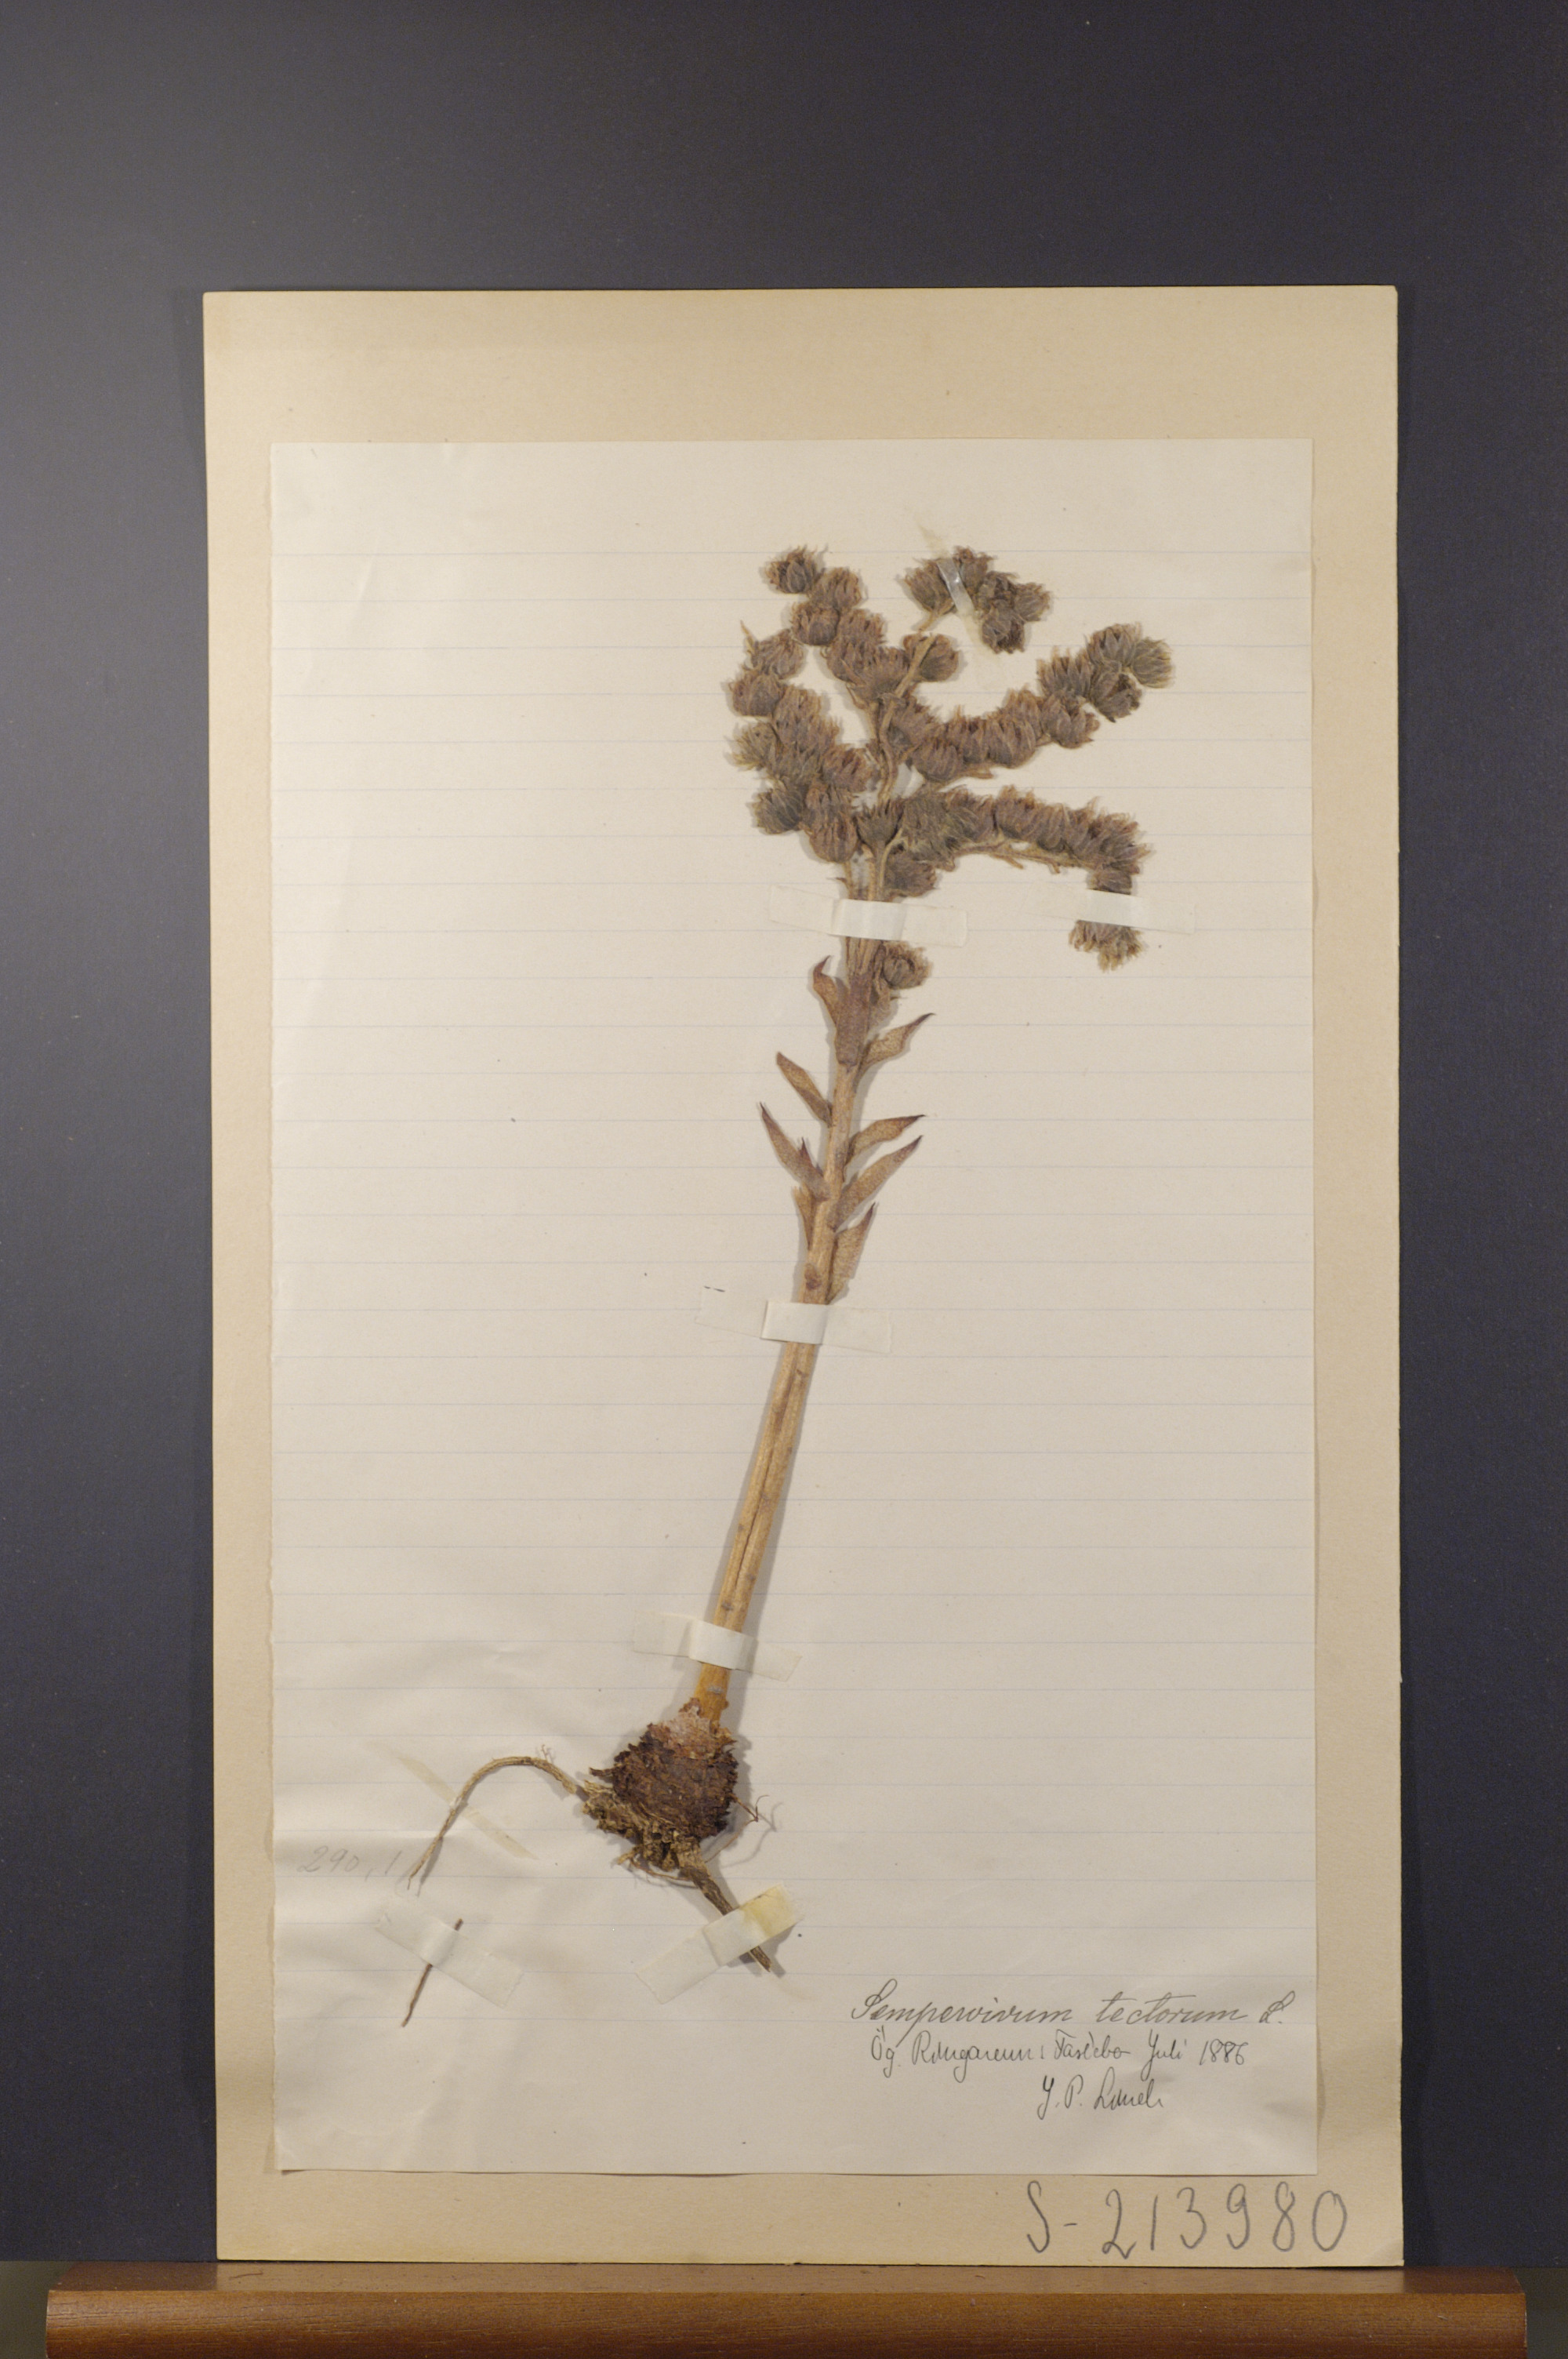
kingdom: Plantae
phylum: Tracheophyta
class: Magnoliopsida
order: Saxifragales
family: Crassulaceae
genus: Sempervivum
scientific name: Sempervivum tectorum
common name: House-leek
